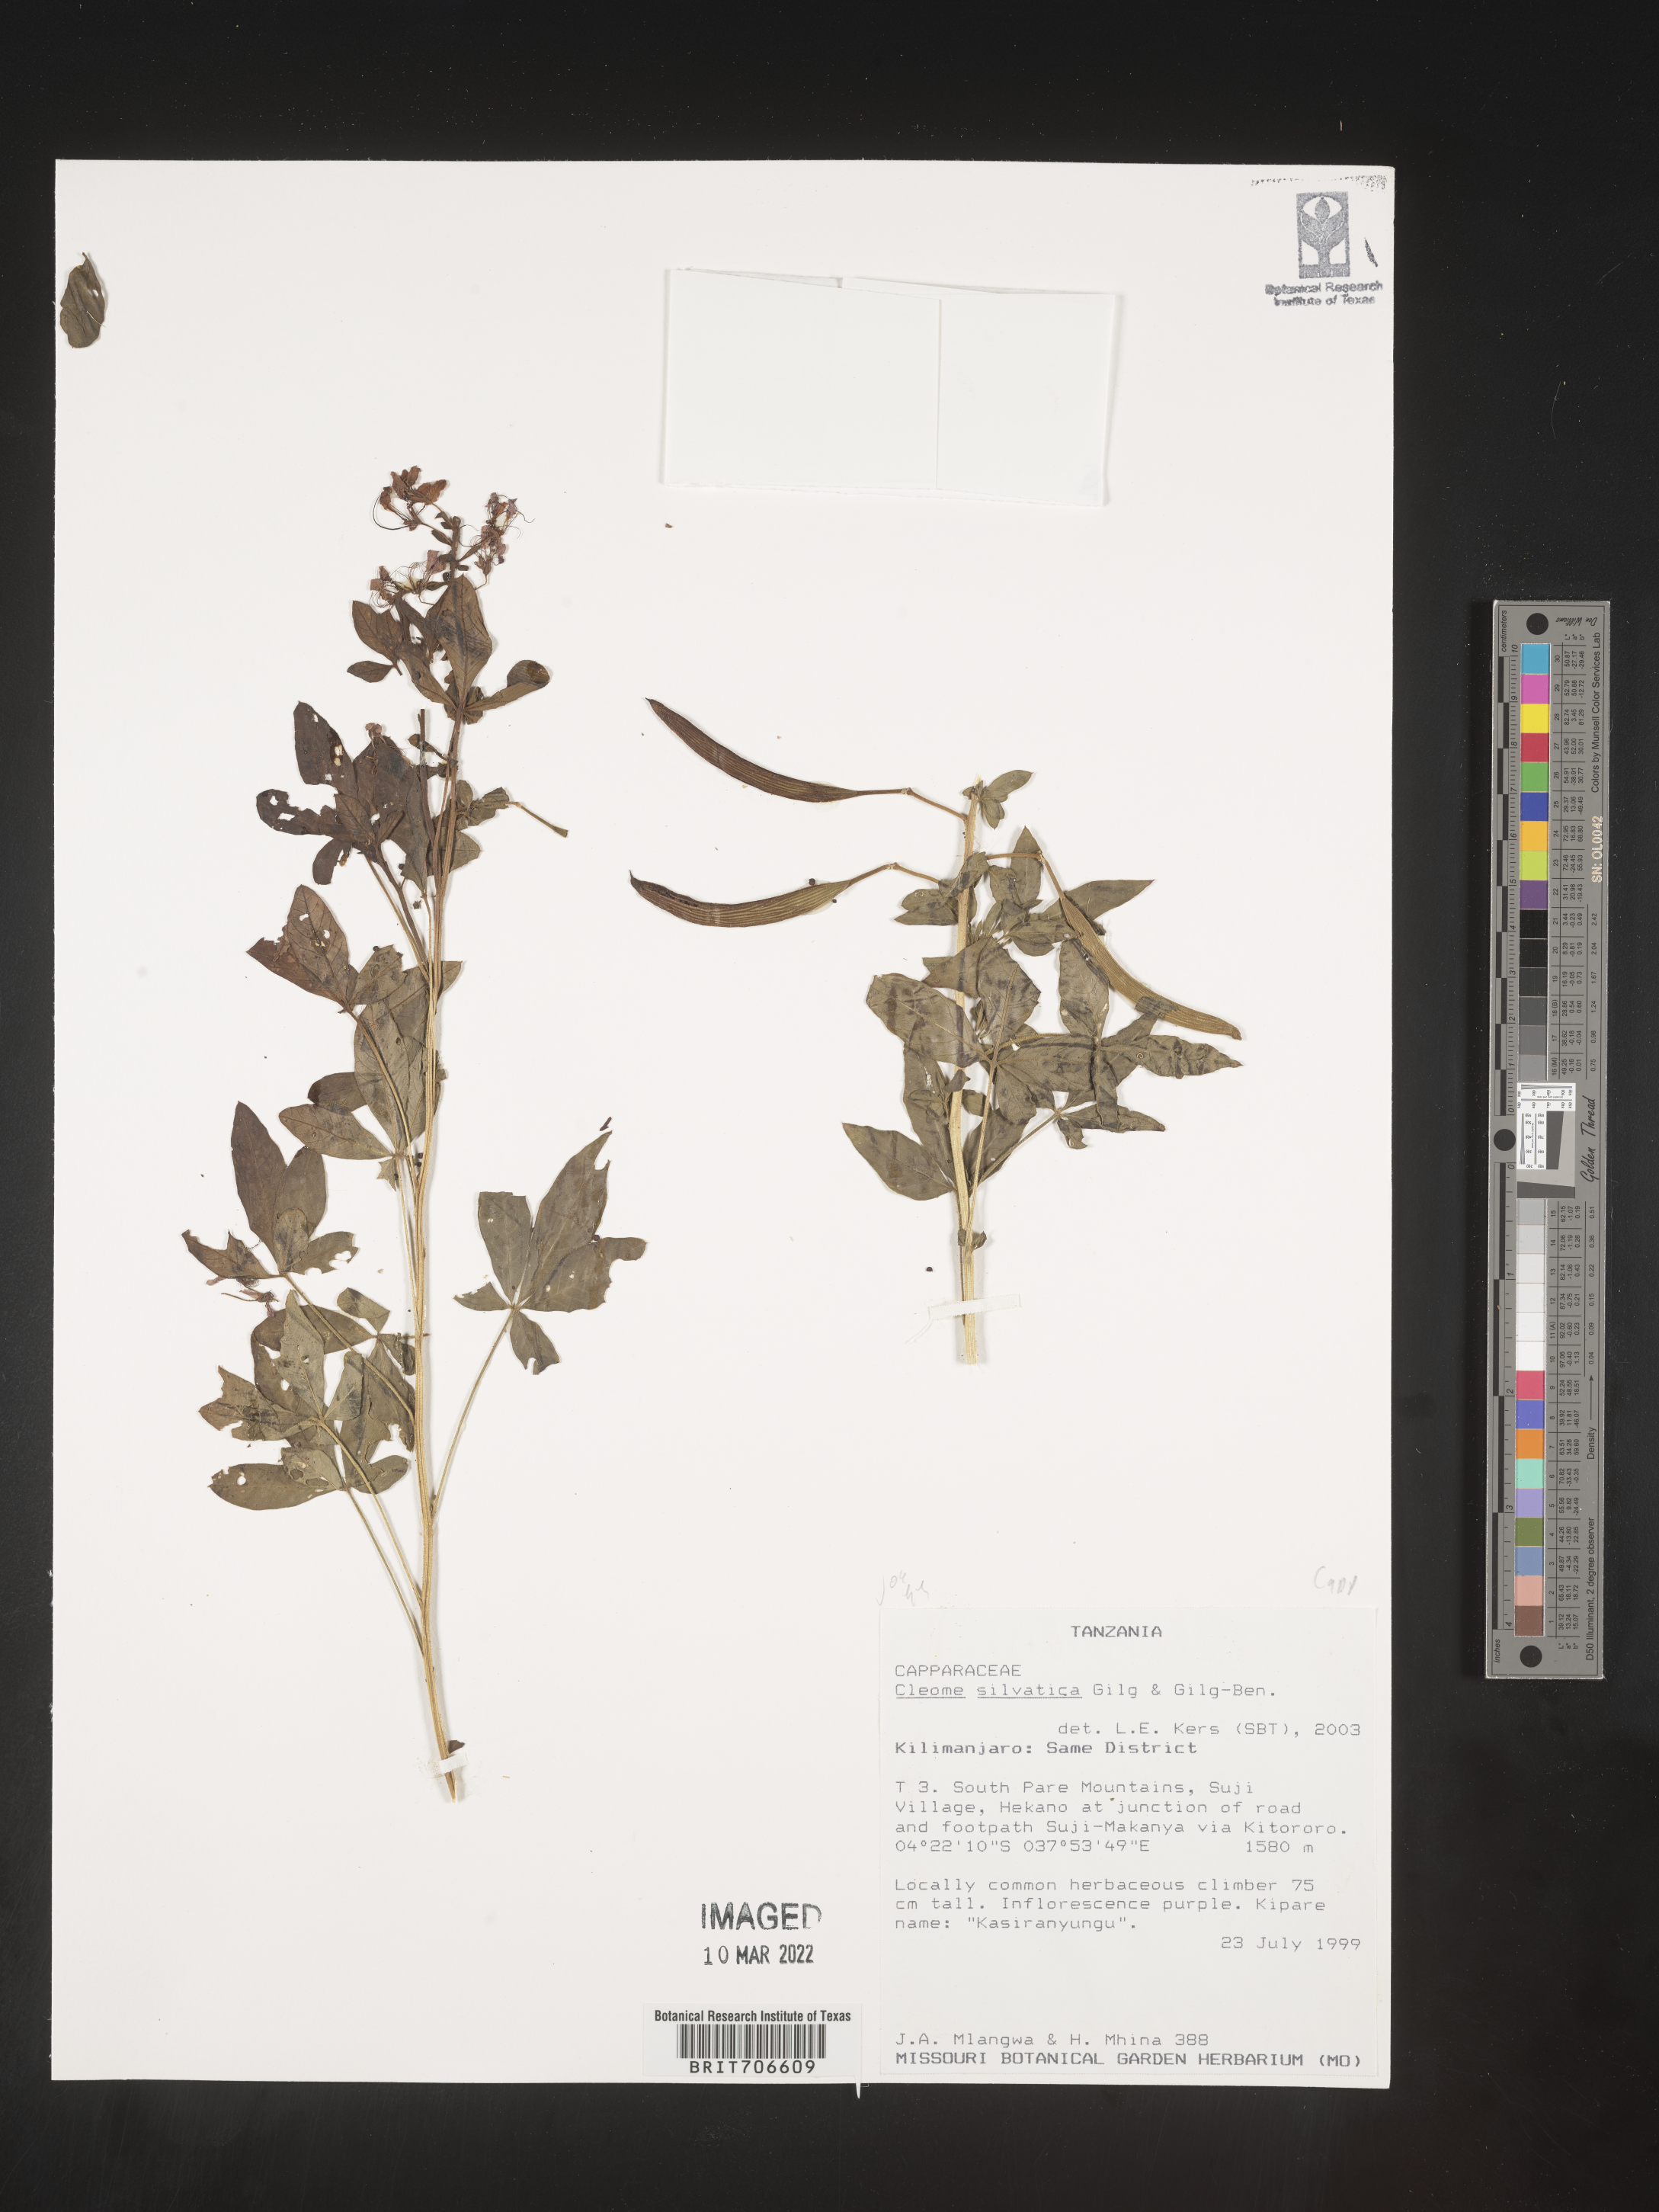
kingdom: Plantae
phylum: Tracheophyta
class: Magnoliopsida
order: Brassicales
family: Cleomaceae
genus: Cleome
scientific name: Cleome
